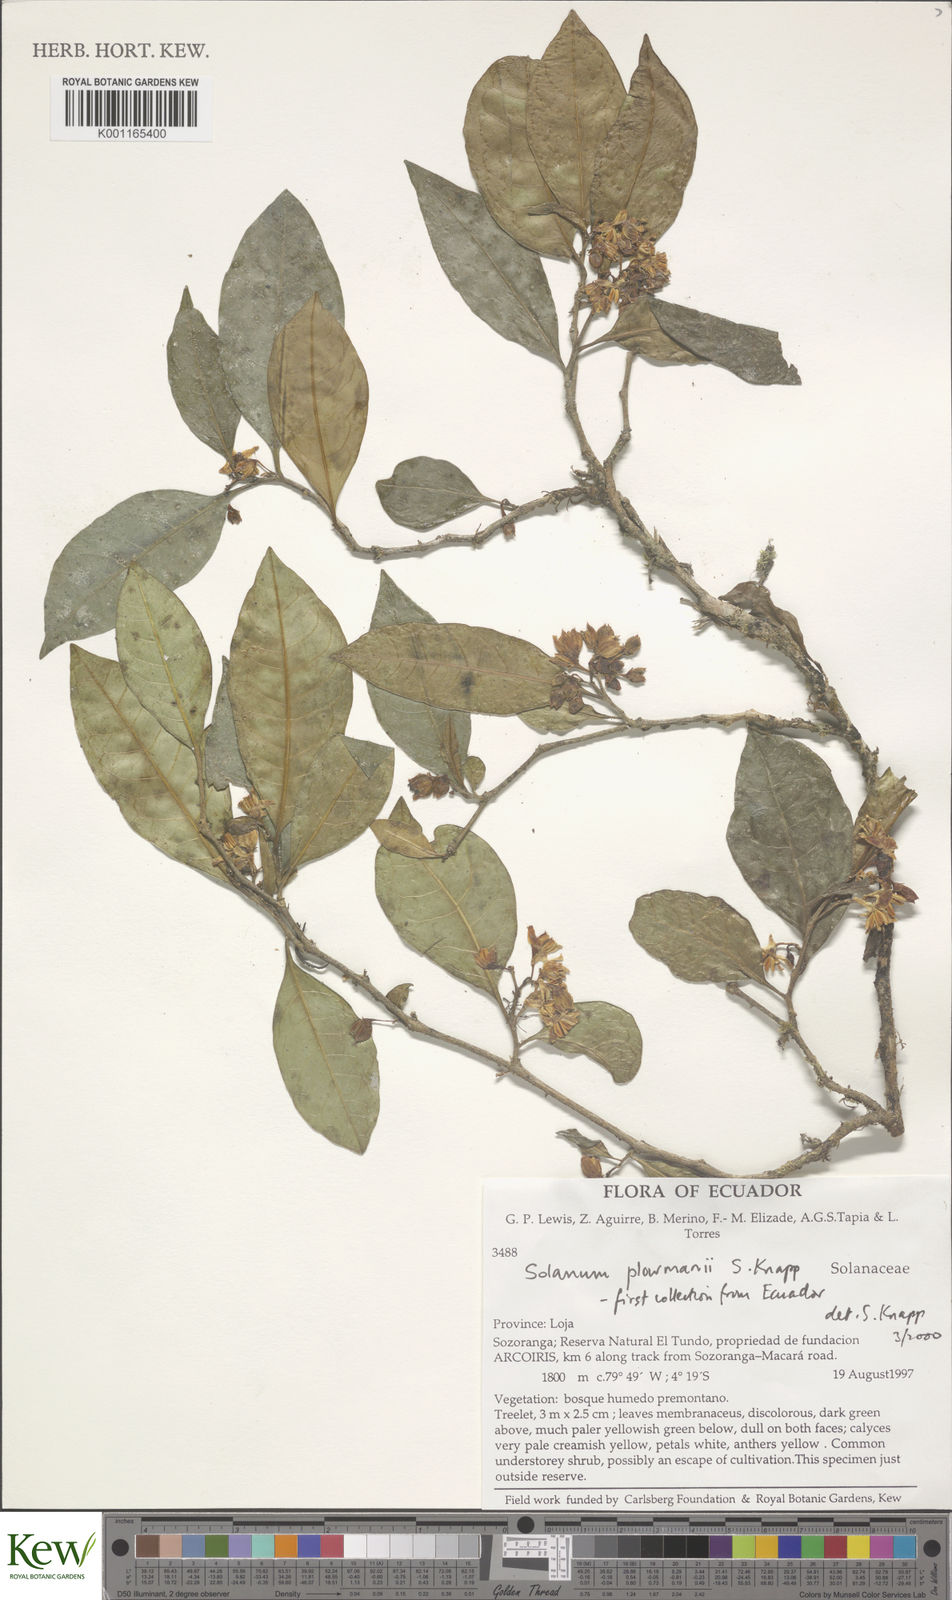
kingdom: Plantae
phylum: Tracheophyta
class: Magnoliopsida
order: Solanales
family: Solanaceae
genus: Solanum
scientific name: Solanum plowmanii
